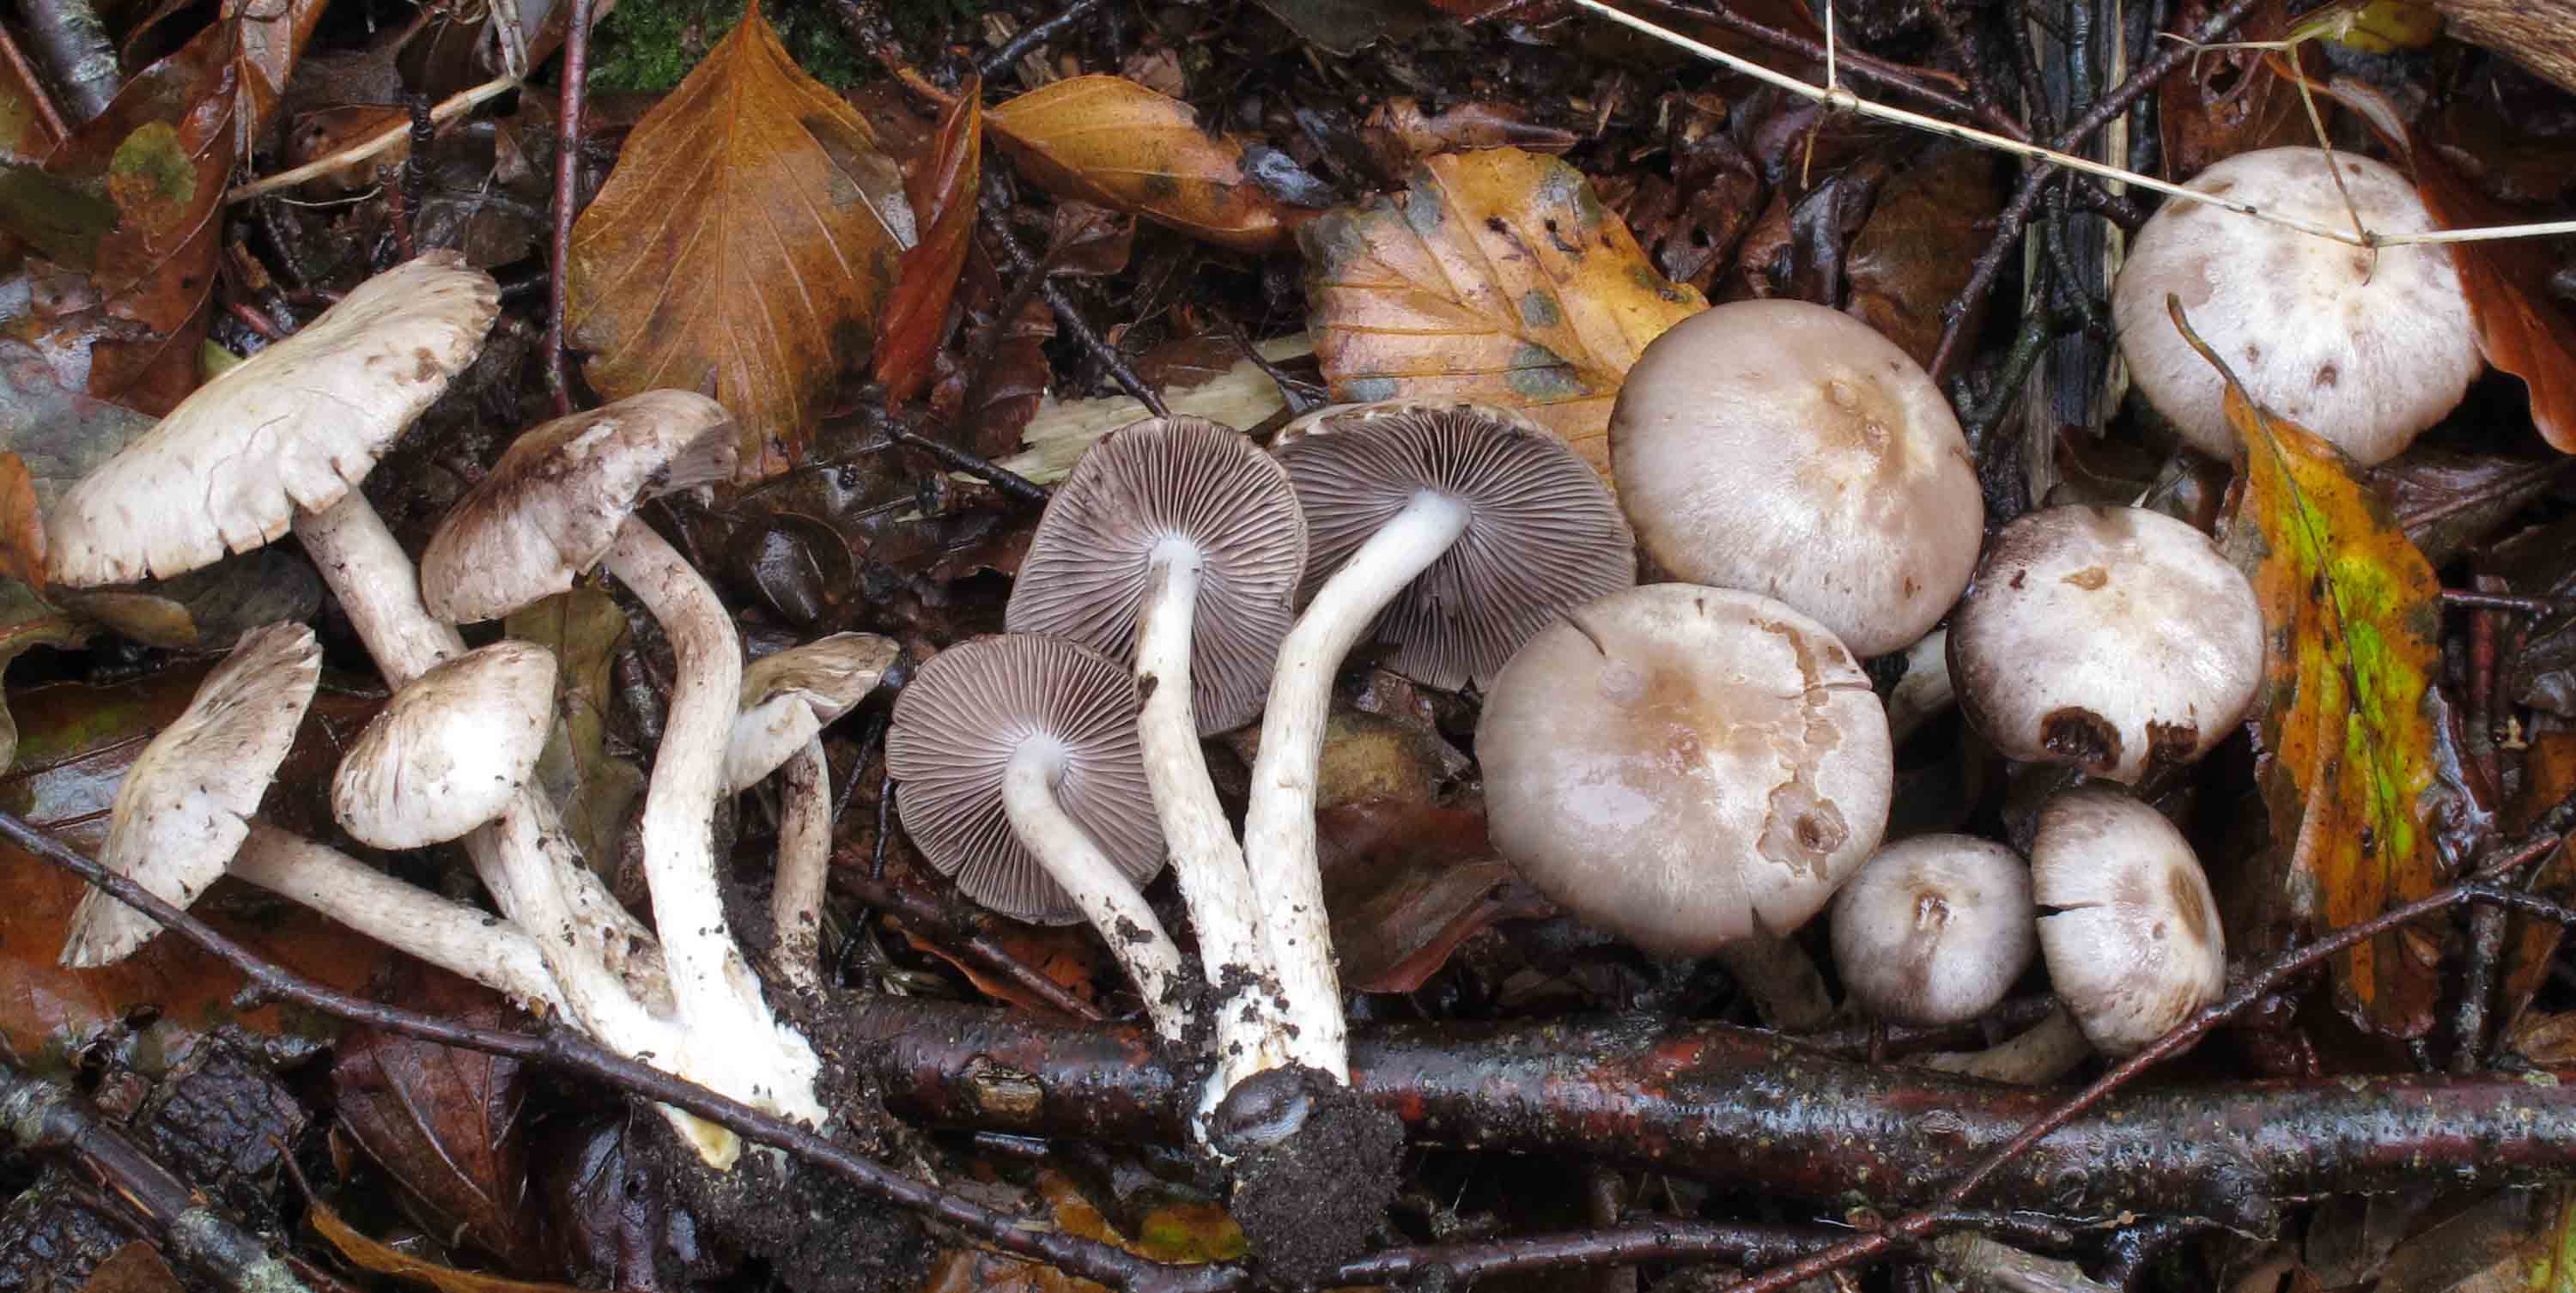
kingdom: Fungi
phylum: Basidiomycota
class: Agaricomycetes
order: Agaricales
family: Psathyrellaceae
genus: Psathyrella
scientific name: Psathyrella cotonea
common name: skællet mørkhat
